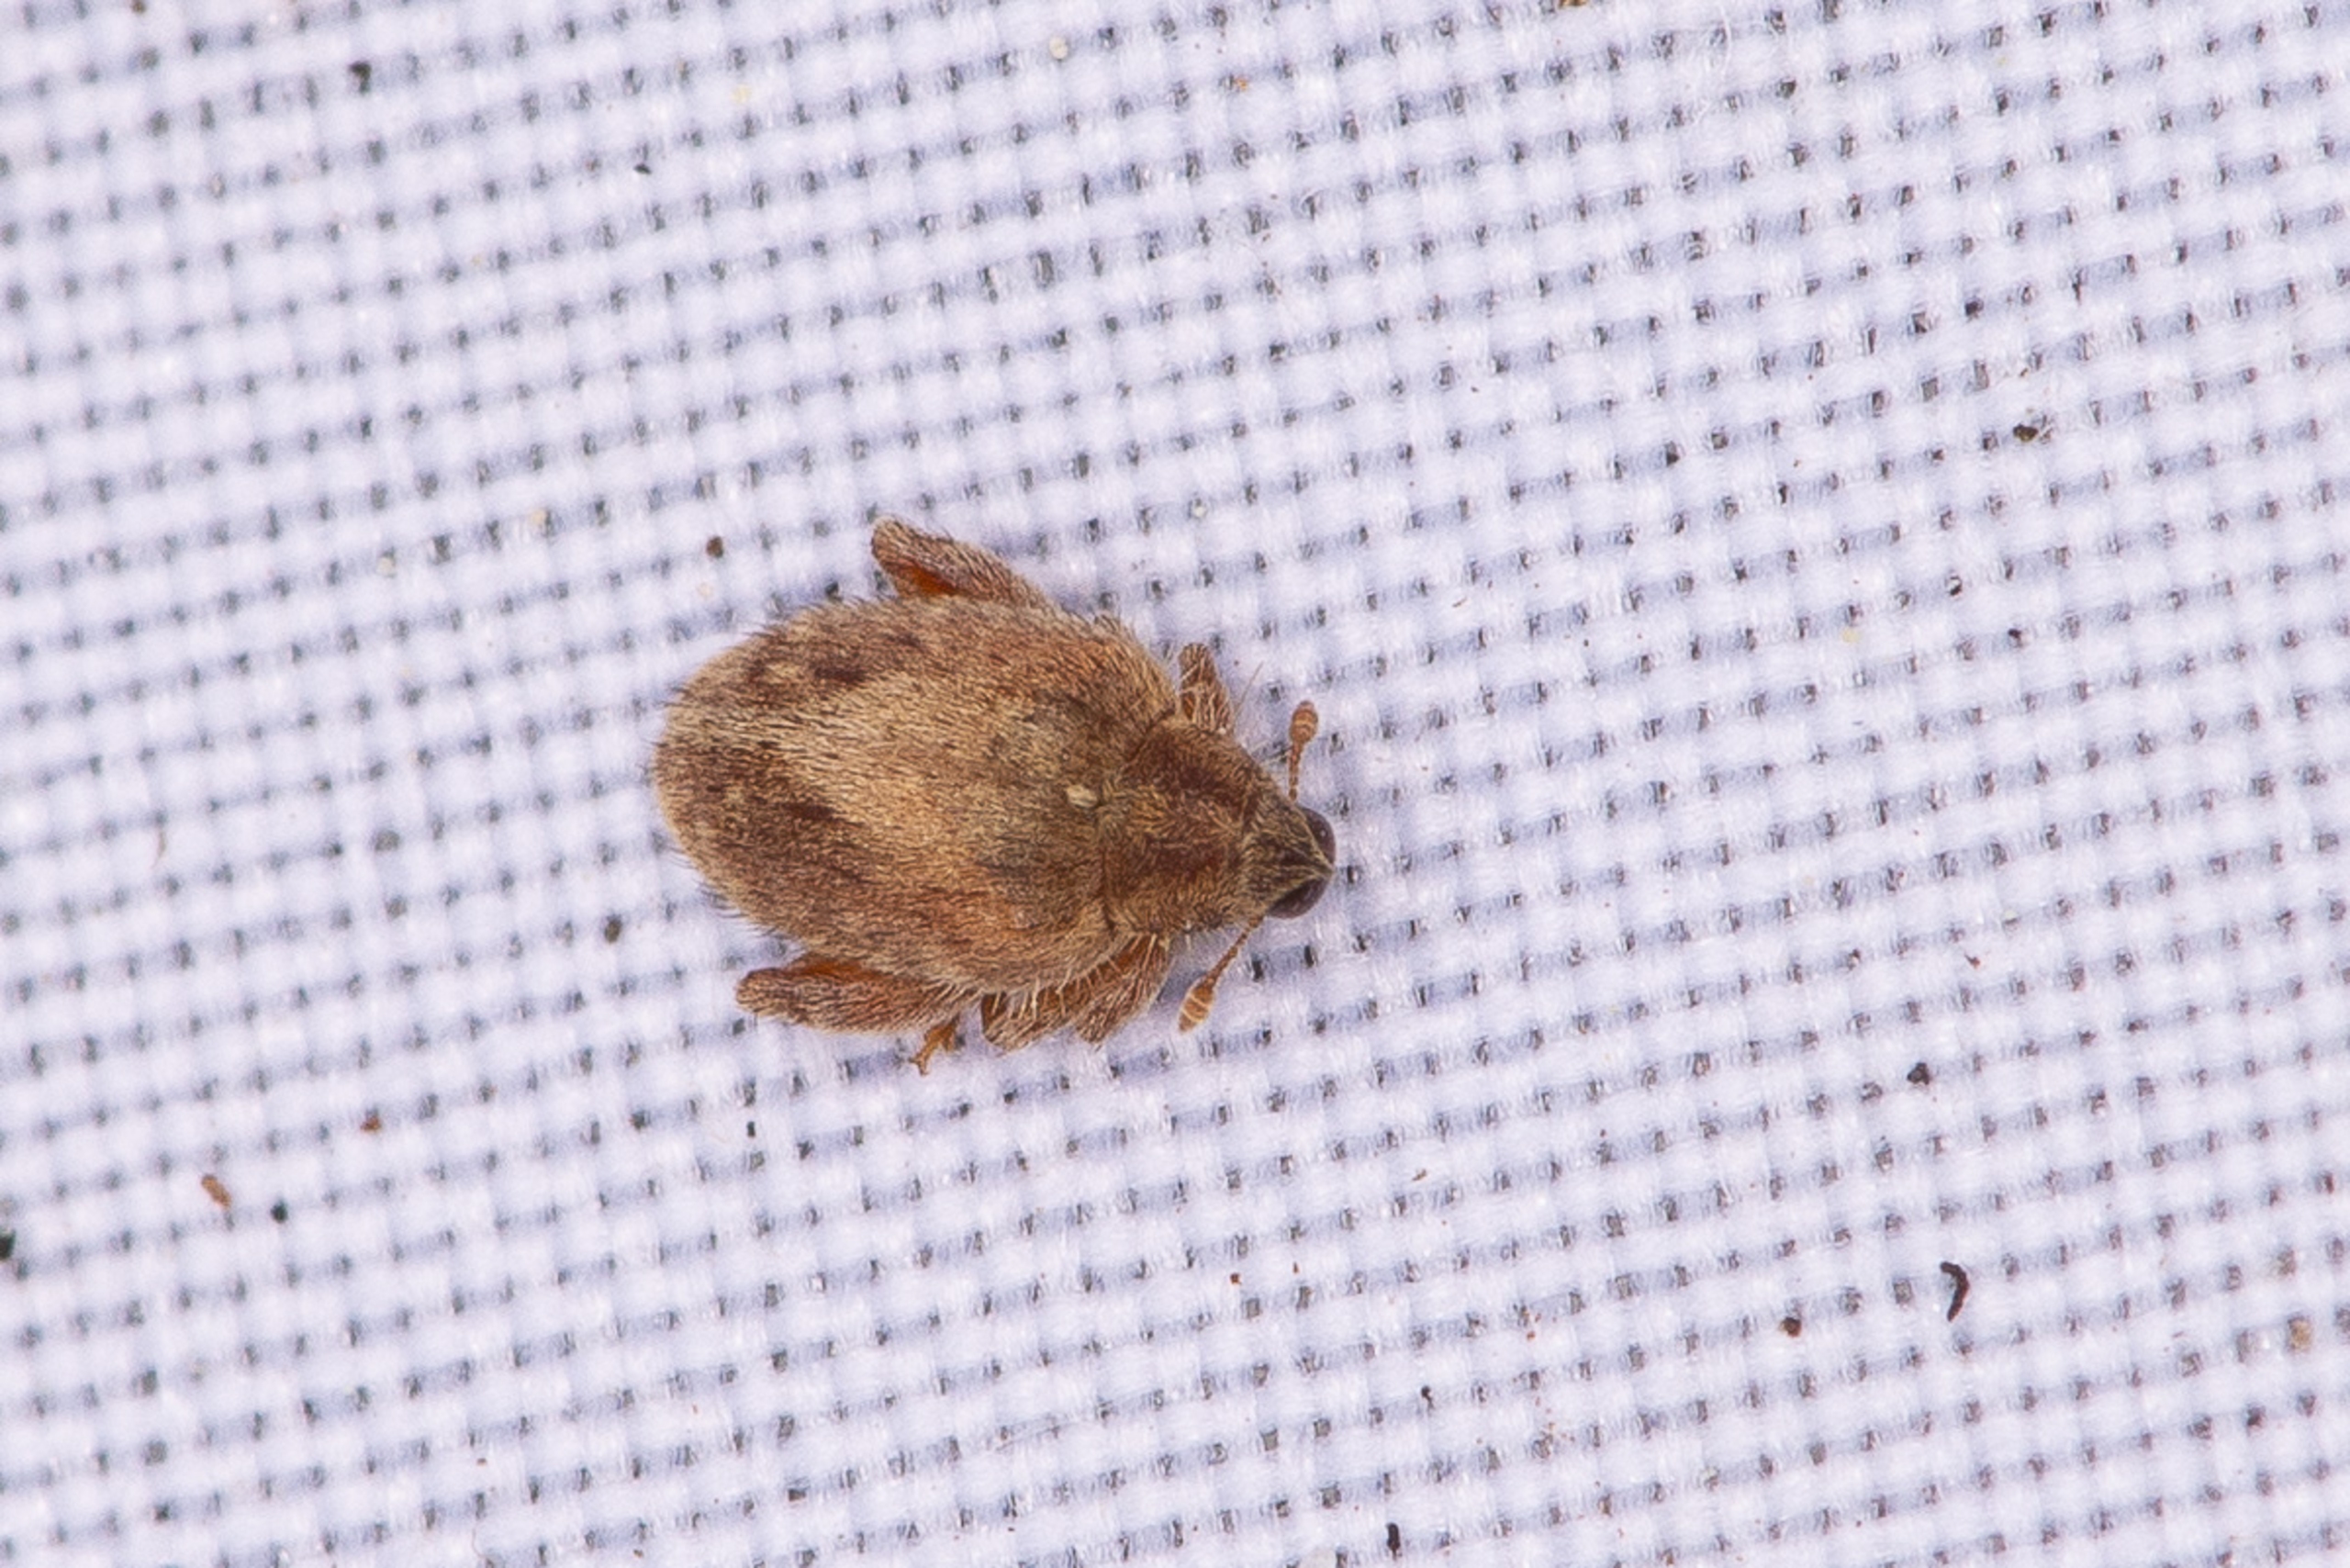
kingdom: Animalia
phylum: Arthropoda
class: Insecta
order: Coleoptera
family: Curculionidae
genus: Orchestes
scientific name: Orchestes quercus
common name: Egeloppe
